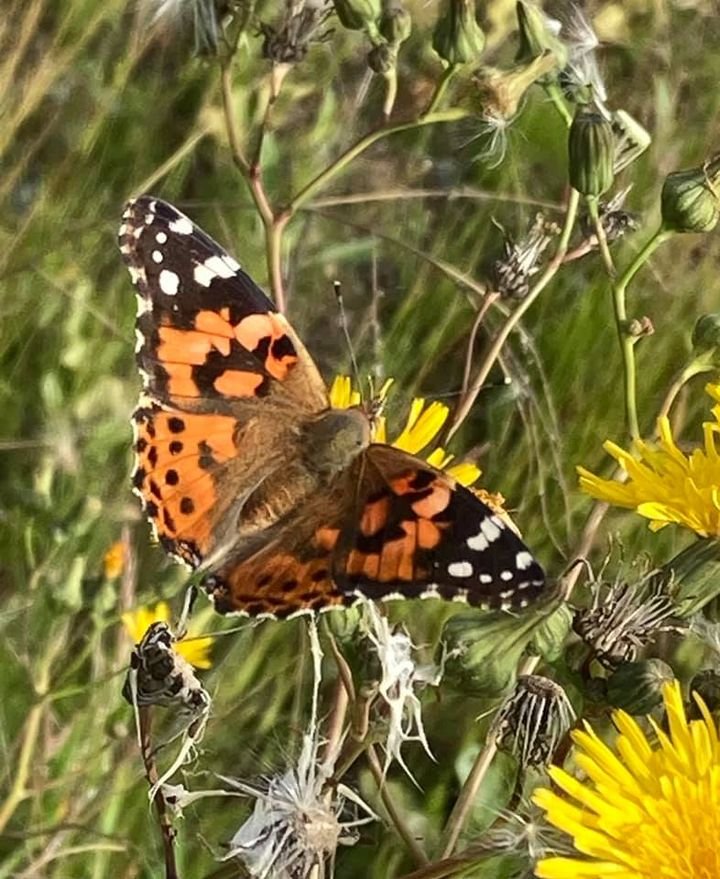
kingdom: Animalia
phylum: Arthropoda
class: Insecta
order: Lepidoptera
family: Nymphalidae
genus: Vanessa
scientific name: Vanessa cardui
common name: Painted Lady
